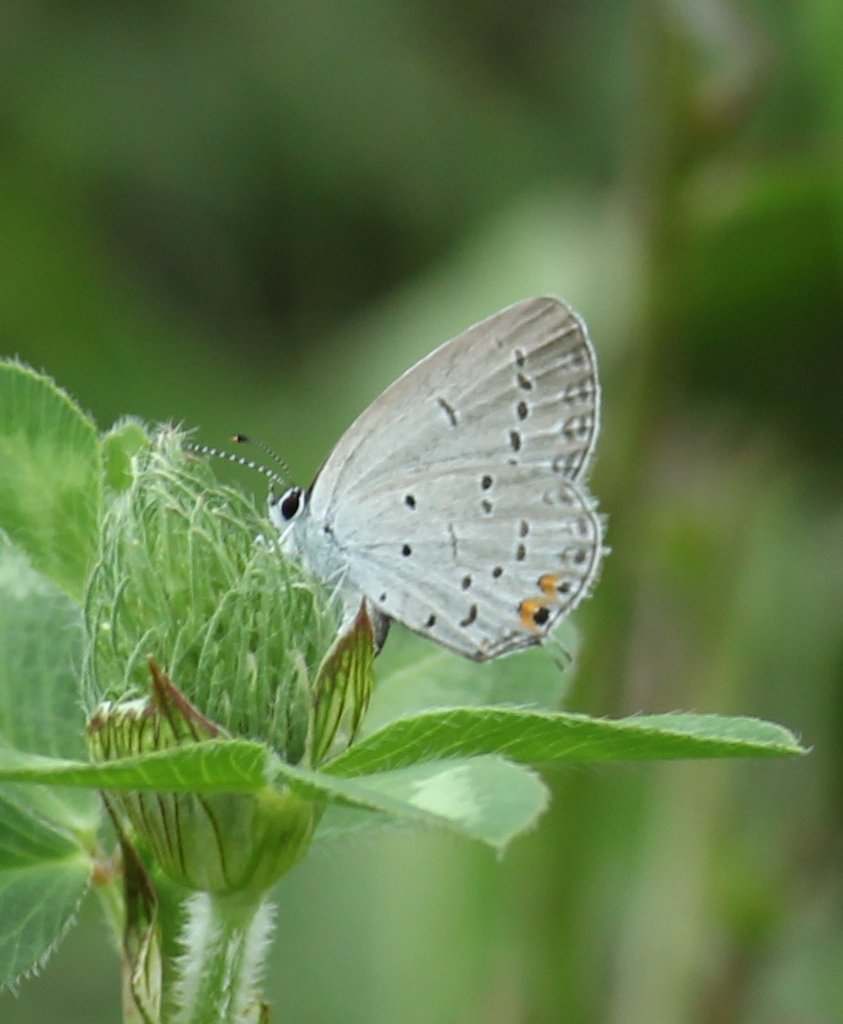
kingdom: Animalia
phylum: Arthropoda
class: Insecta
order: Lepidoptera
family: Lycaenidae
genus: Elkalyce
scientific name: Elkalyce comyntas
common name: Eastern Tailed-Blue
